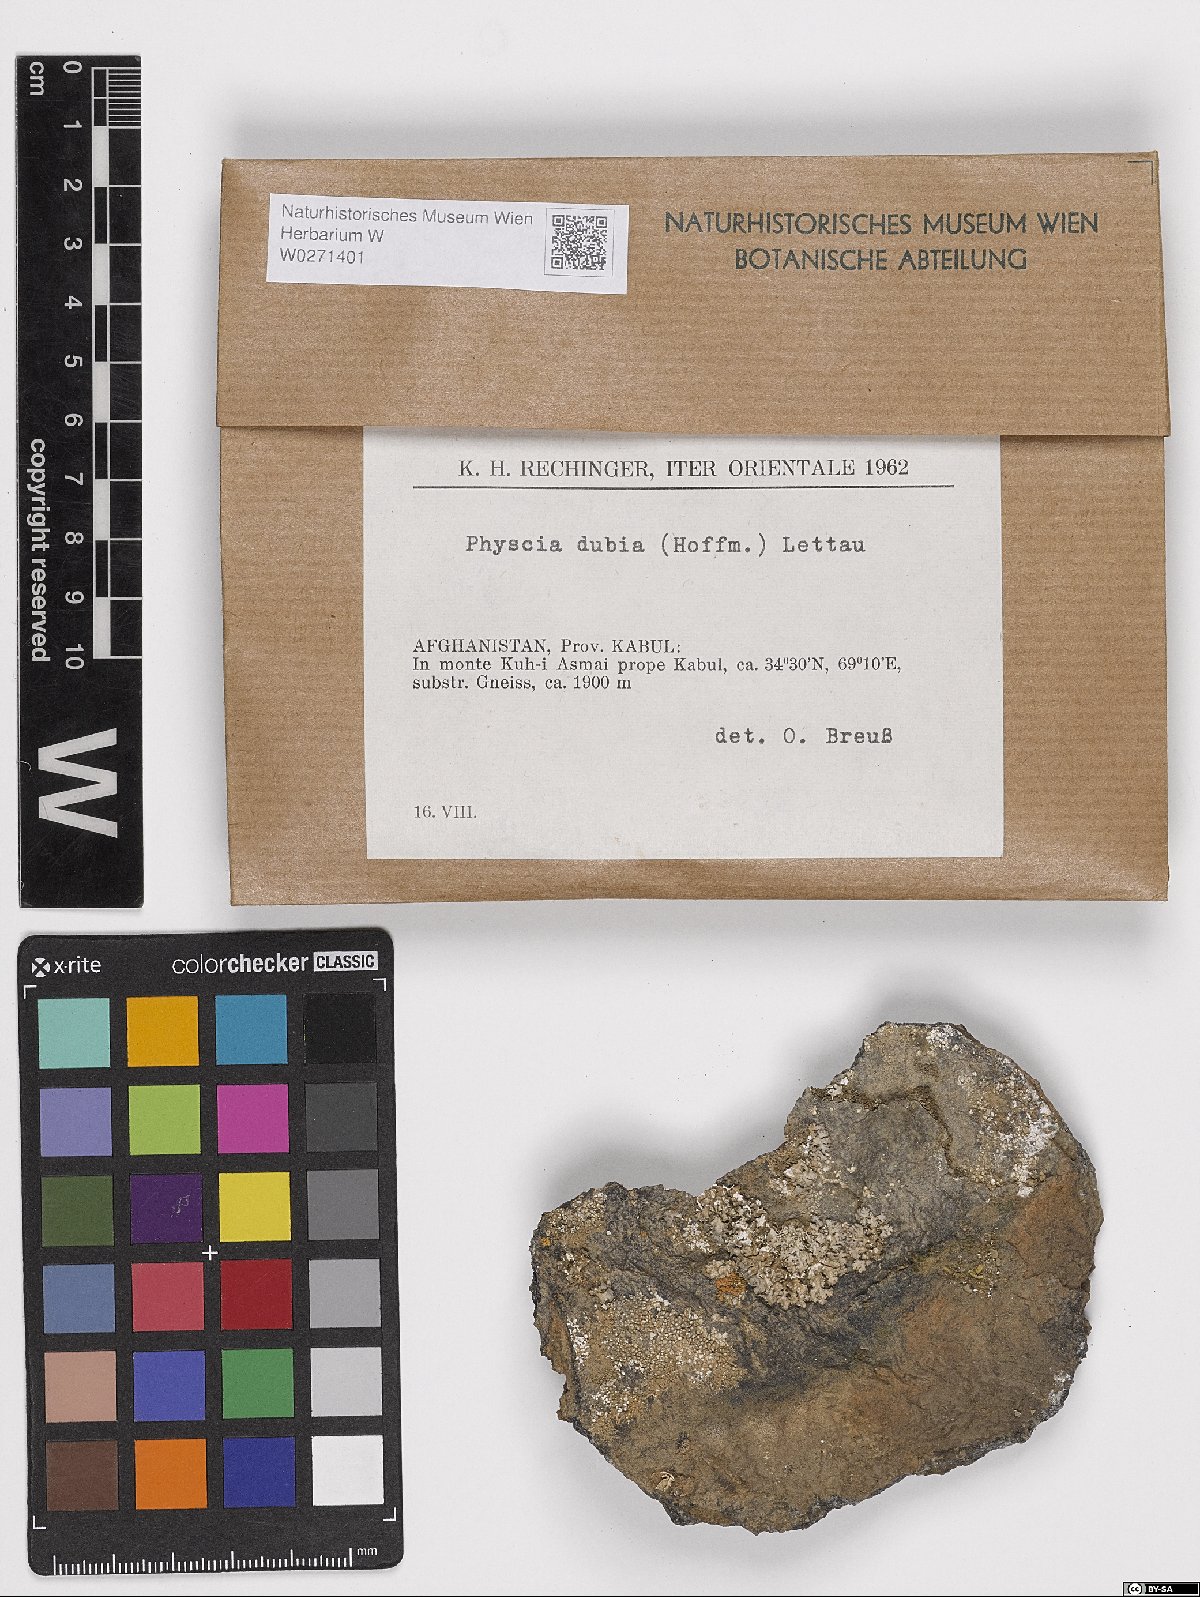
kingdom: Fungi
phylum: Ascomycota
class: Lecanoromycetes
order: Caliciales
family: Physciaceae
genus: Physcia
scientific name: Physcia dubia
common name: Powder-tipped rosette lichen
